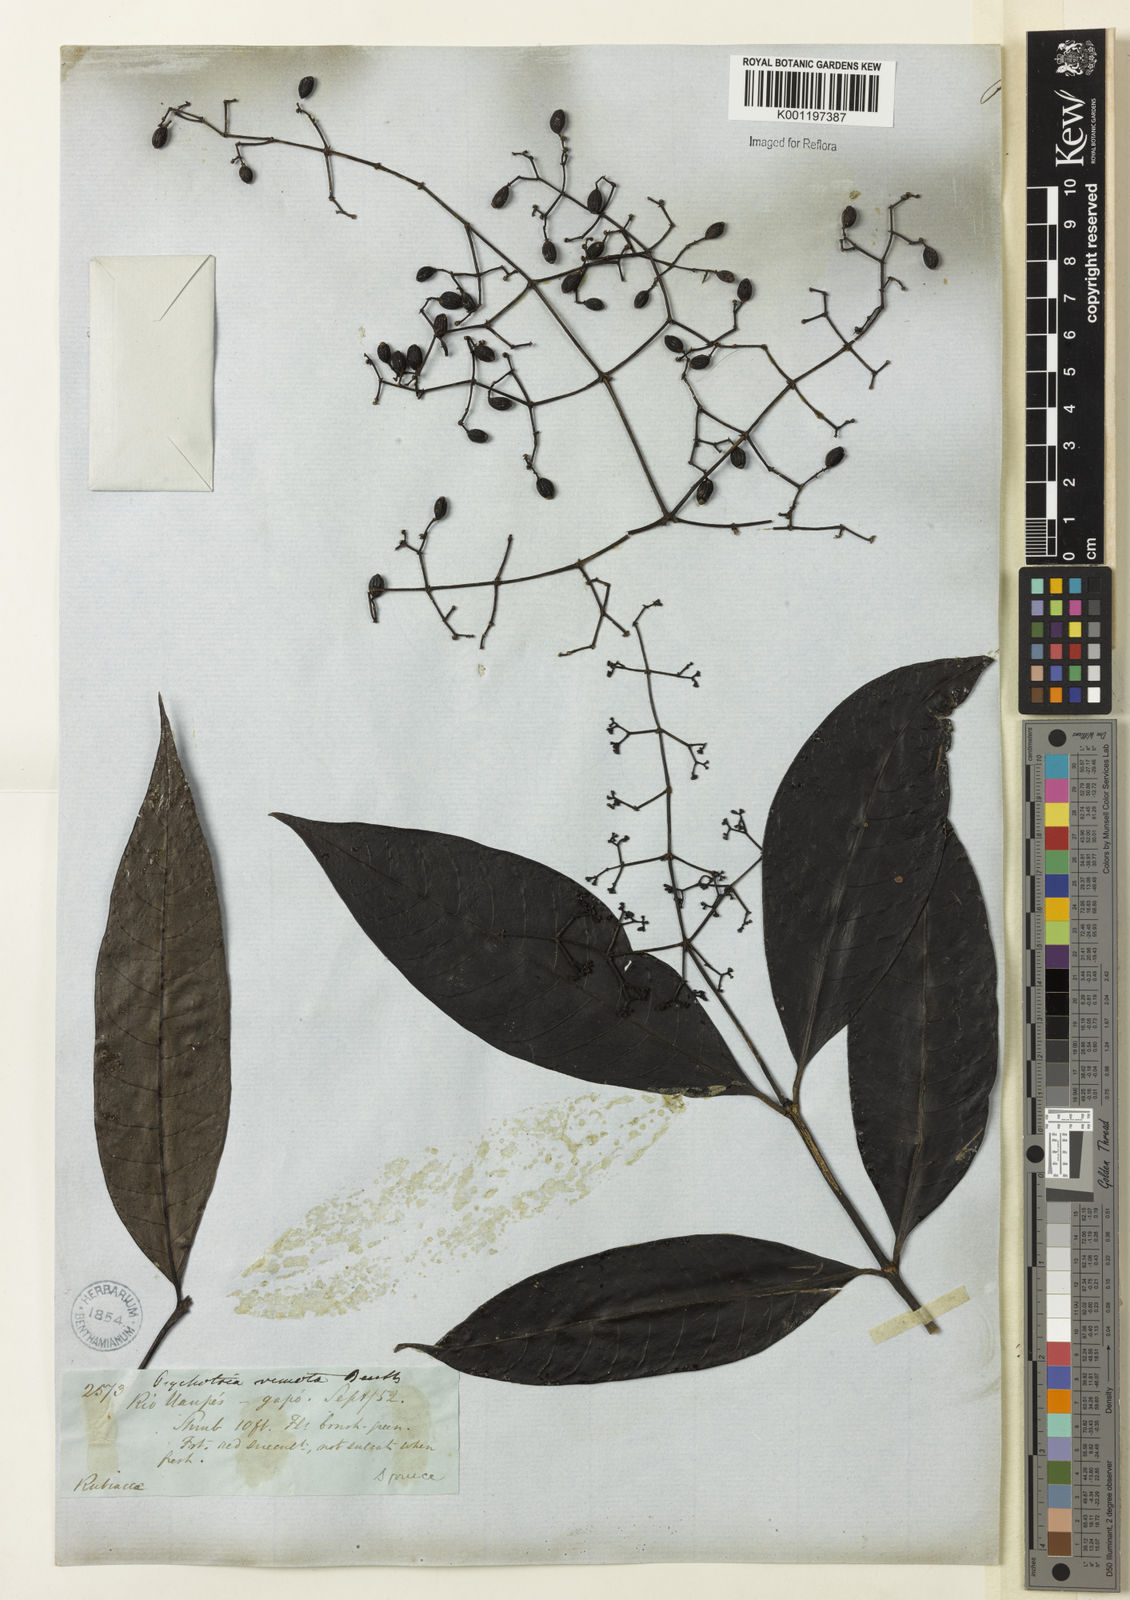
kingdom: Plantae
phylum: Tracheophyta
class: Magnoliopsida
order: Gentianales
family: Rubiaceae
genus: Psychotria
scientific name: Psychotria remota
